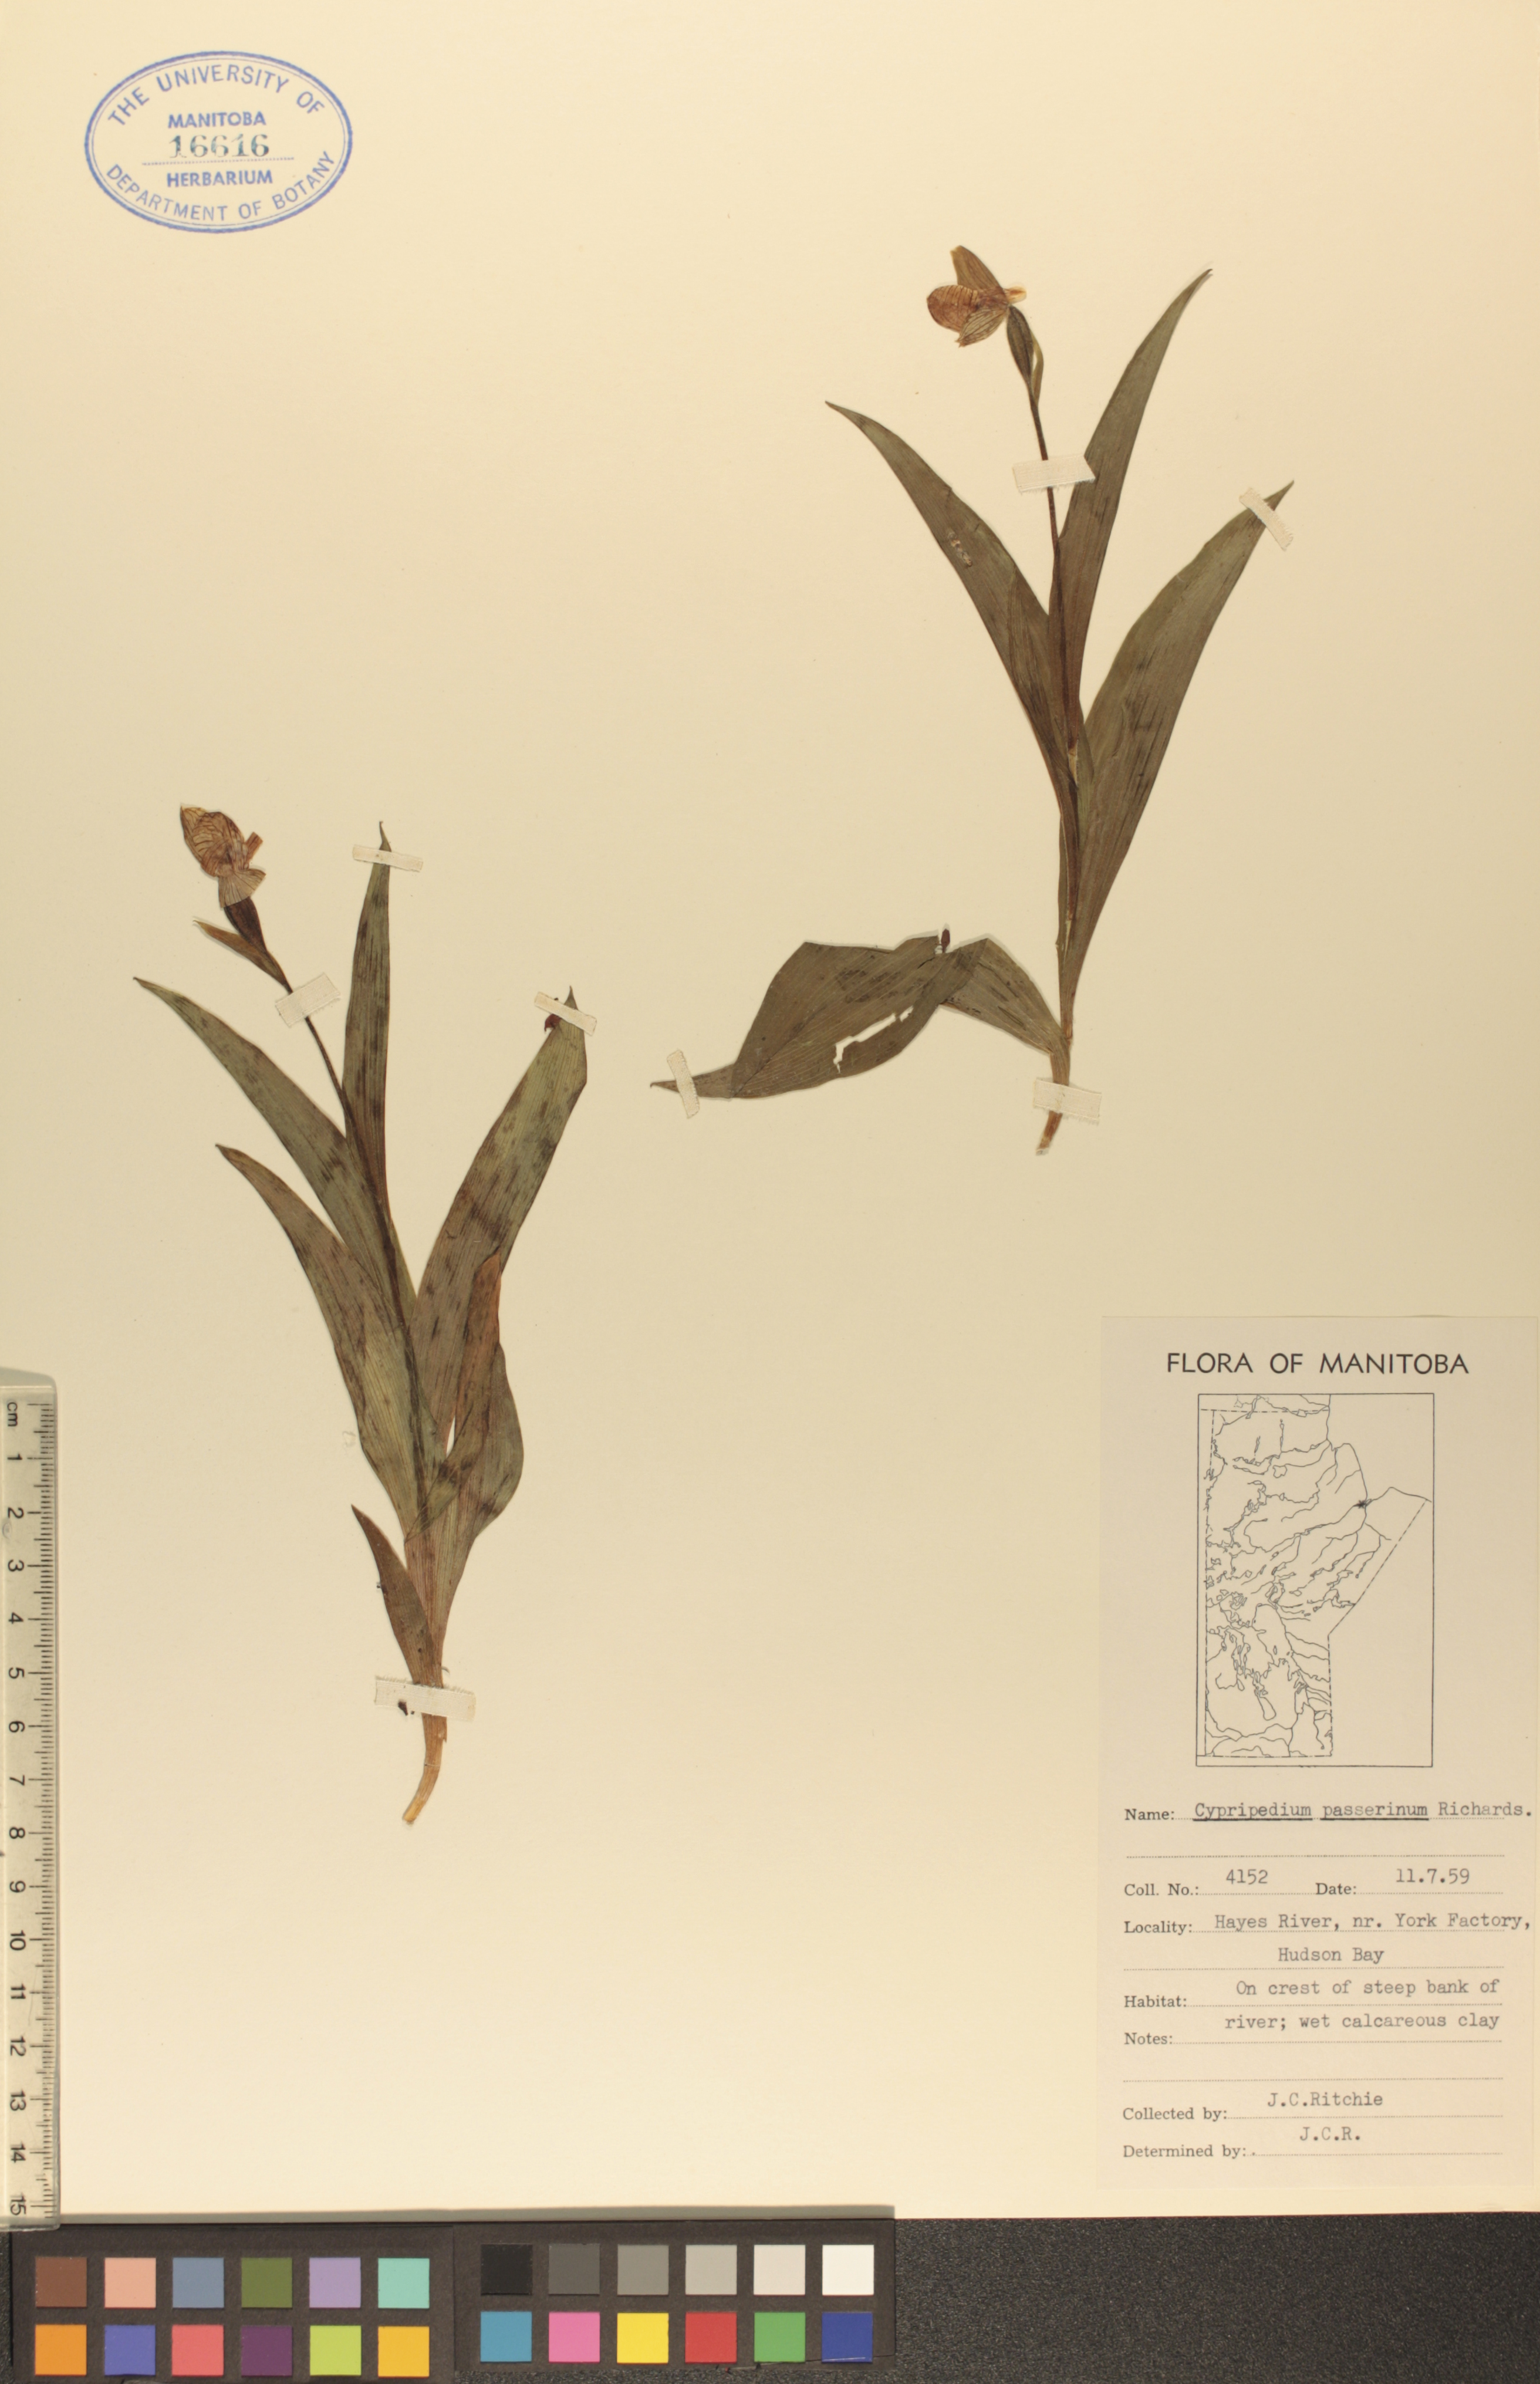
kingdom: Plantae
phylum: Tracheophyta
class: Liliopsida
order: Asparagales
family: Orchidaceae
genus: Cypripedium
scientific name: Cypripedium passerinum
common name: Sparrow's-egg lady's-slipper
